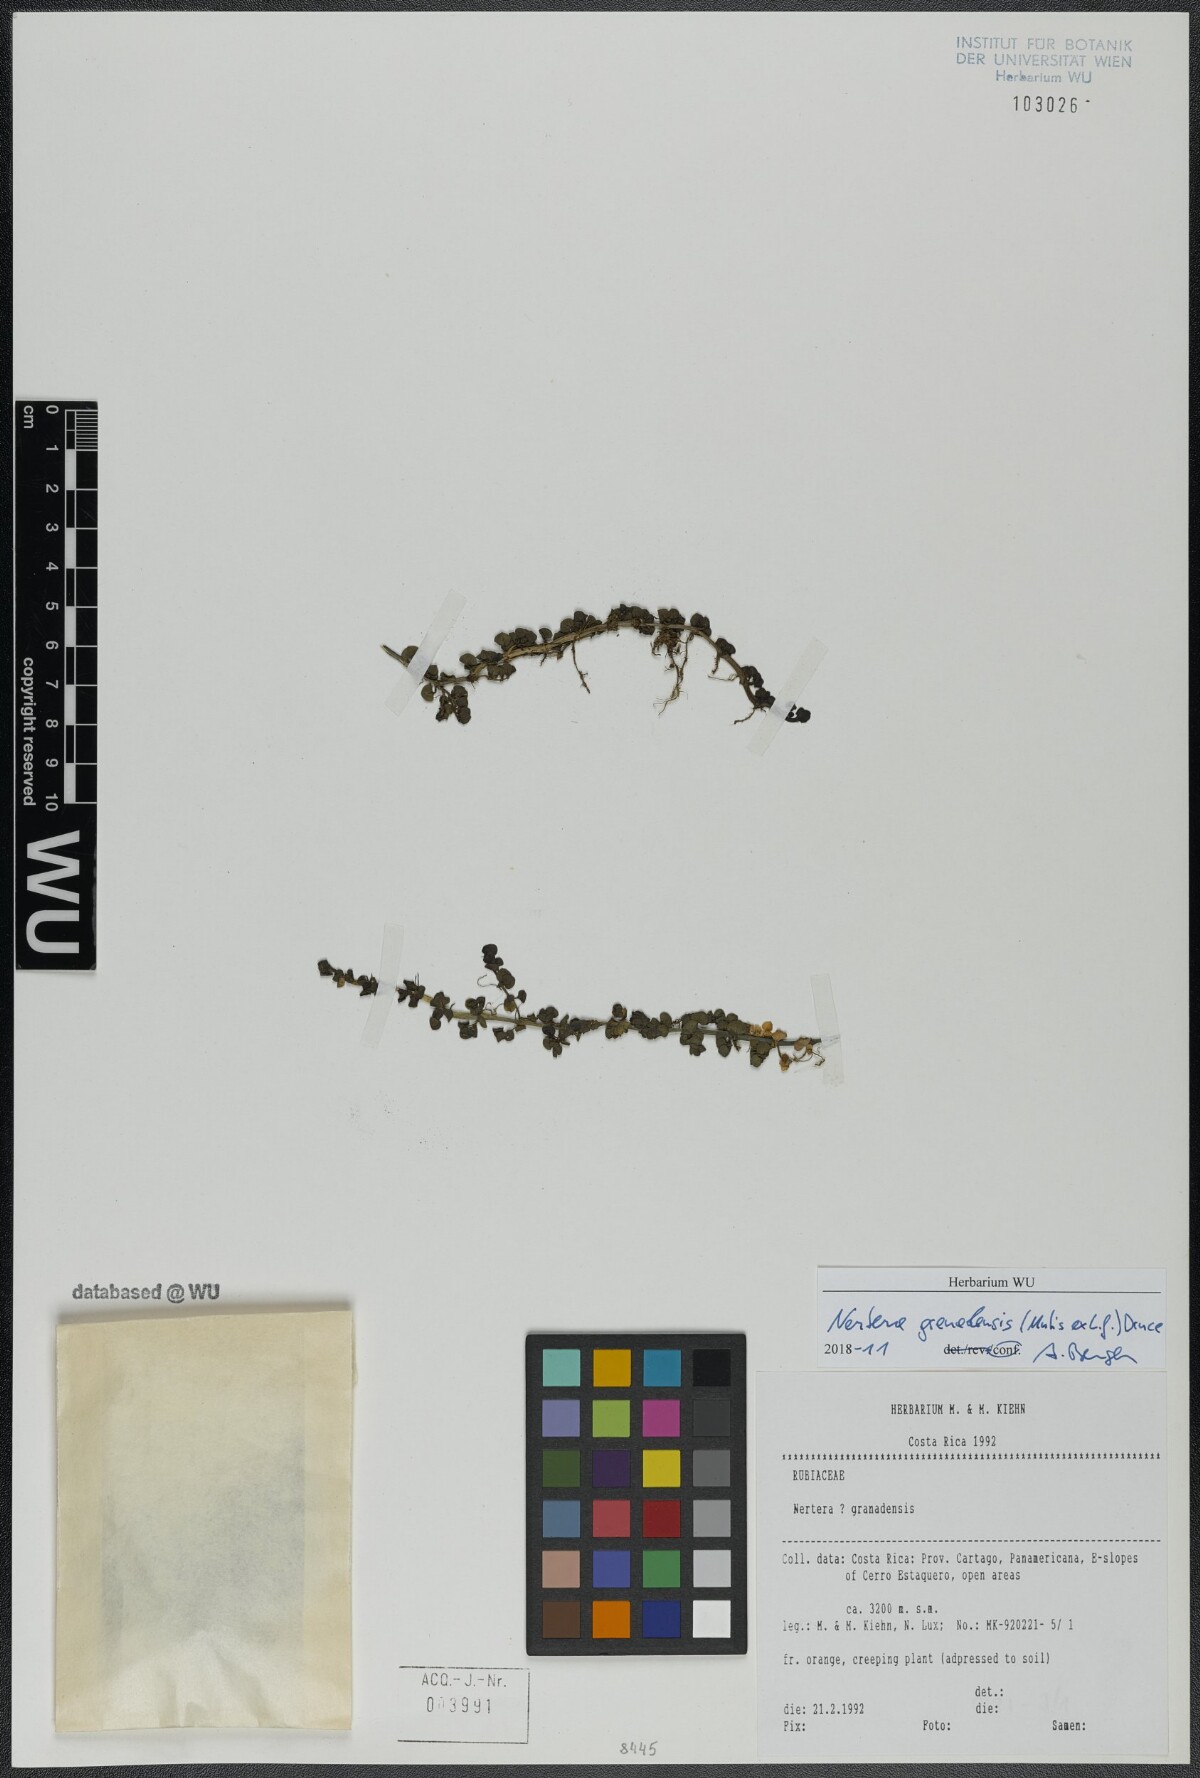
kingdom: Plantae
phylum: Tracheophyta
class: Magnoliopsida
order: Gentianales
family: Rubiaceae
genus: Nertera
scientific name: Nertera granadensis
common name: Beadplant
